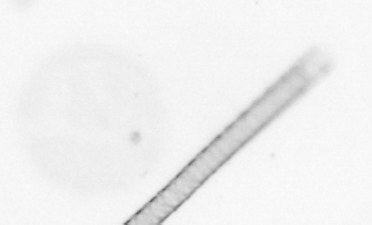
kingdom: Chromista
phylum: Ochrophyta
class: Bacillariophyceae
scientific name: Bacillariophyceae
